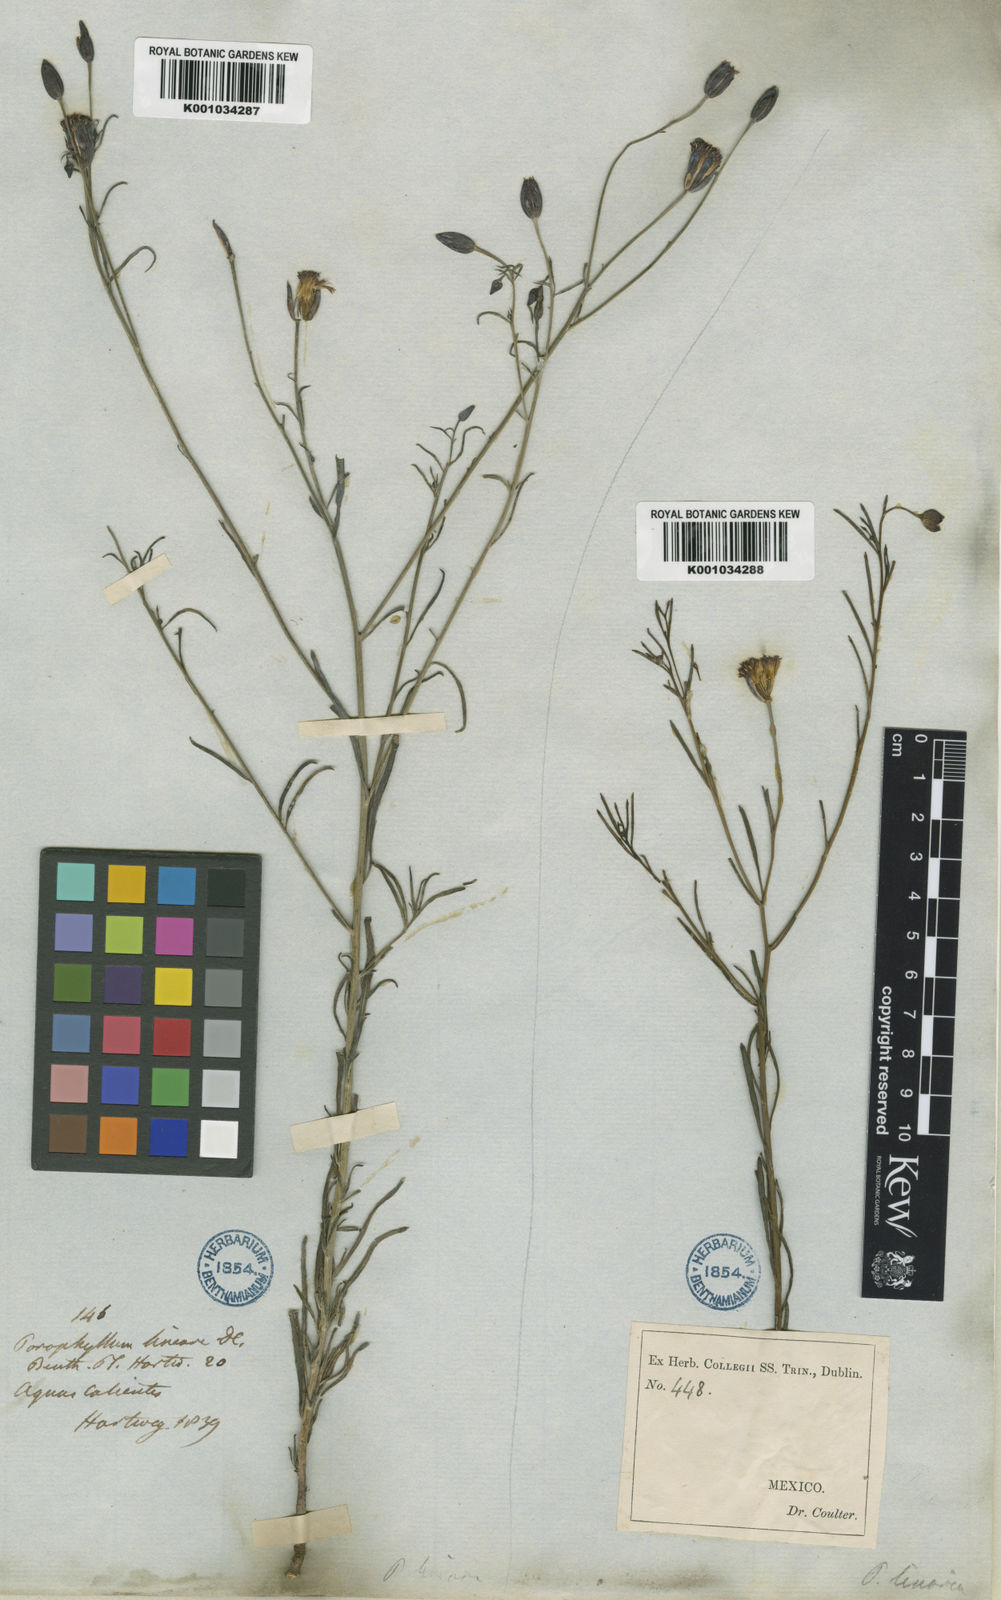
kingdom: Plantae
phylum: Tracheophyta
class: Magnoliopsida
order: Asterales
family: Asteraceae
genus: Porophyllum
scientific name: Porophyllum linaria
